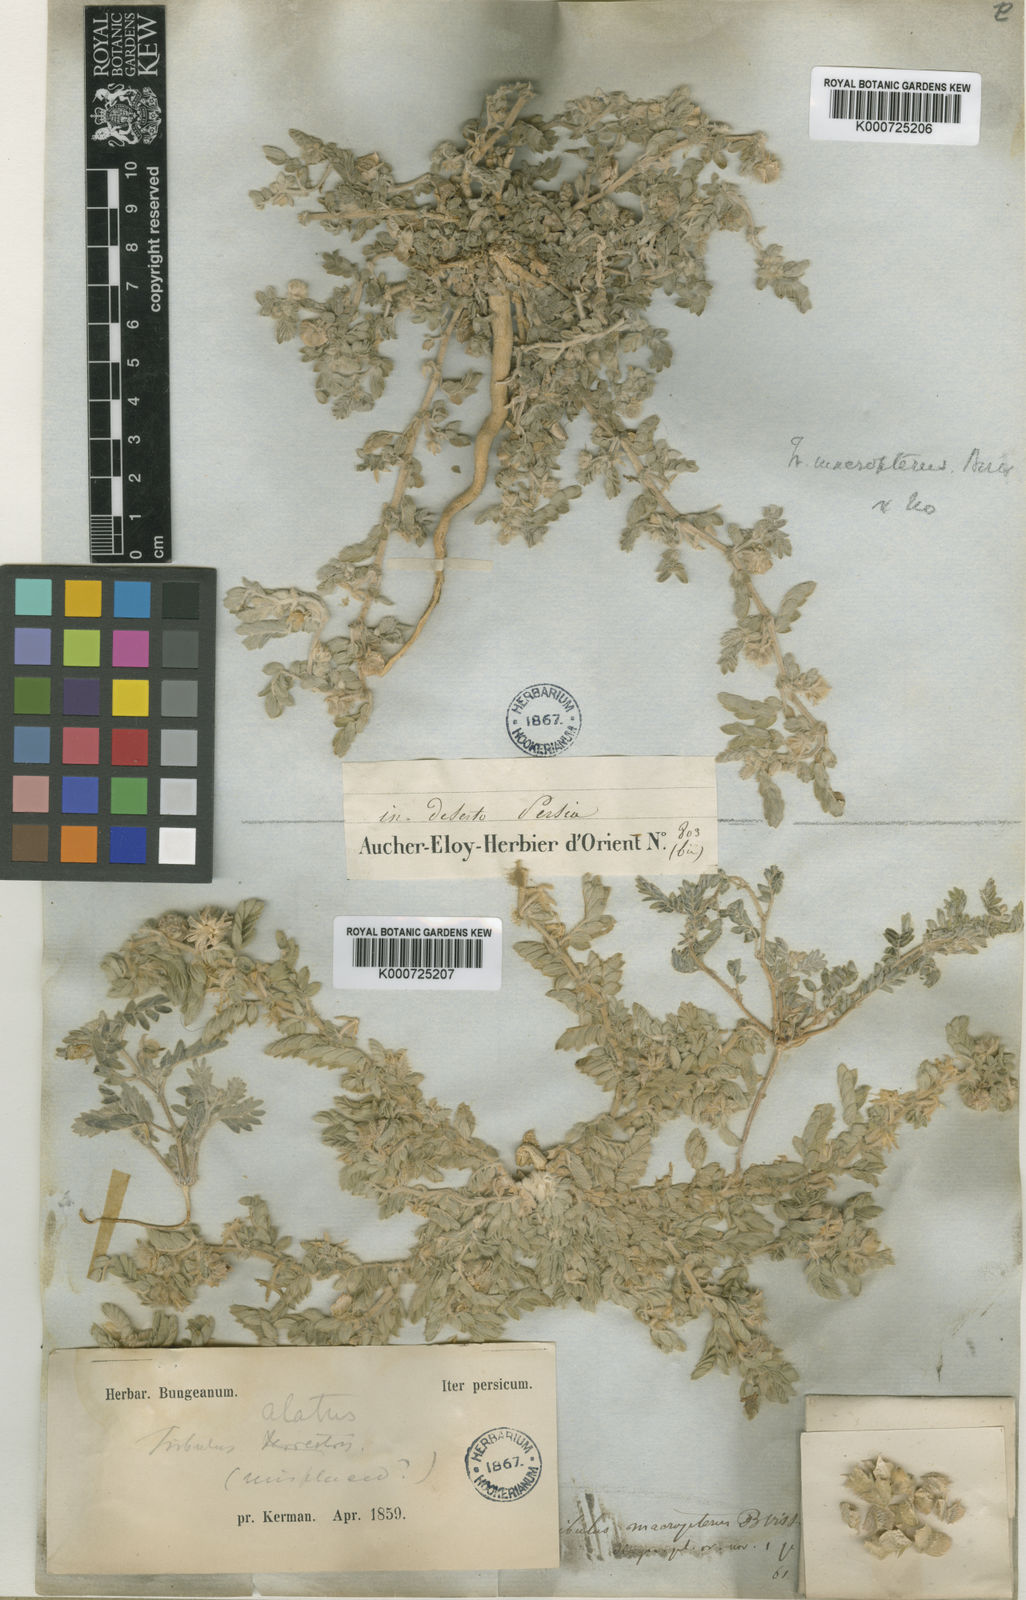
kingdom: Plantae
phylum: Tracheophyta
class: Magnoliopsida
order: Zygophyllales
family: Zygophyllaceae
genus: Tribulus
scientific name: Tribulus macropterus
